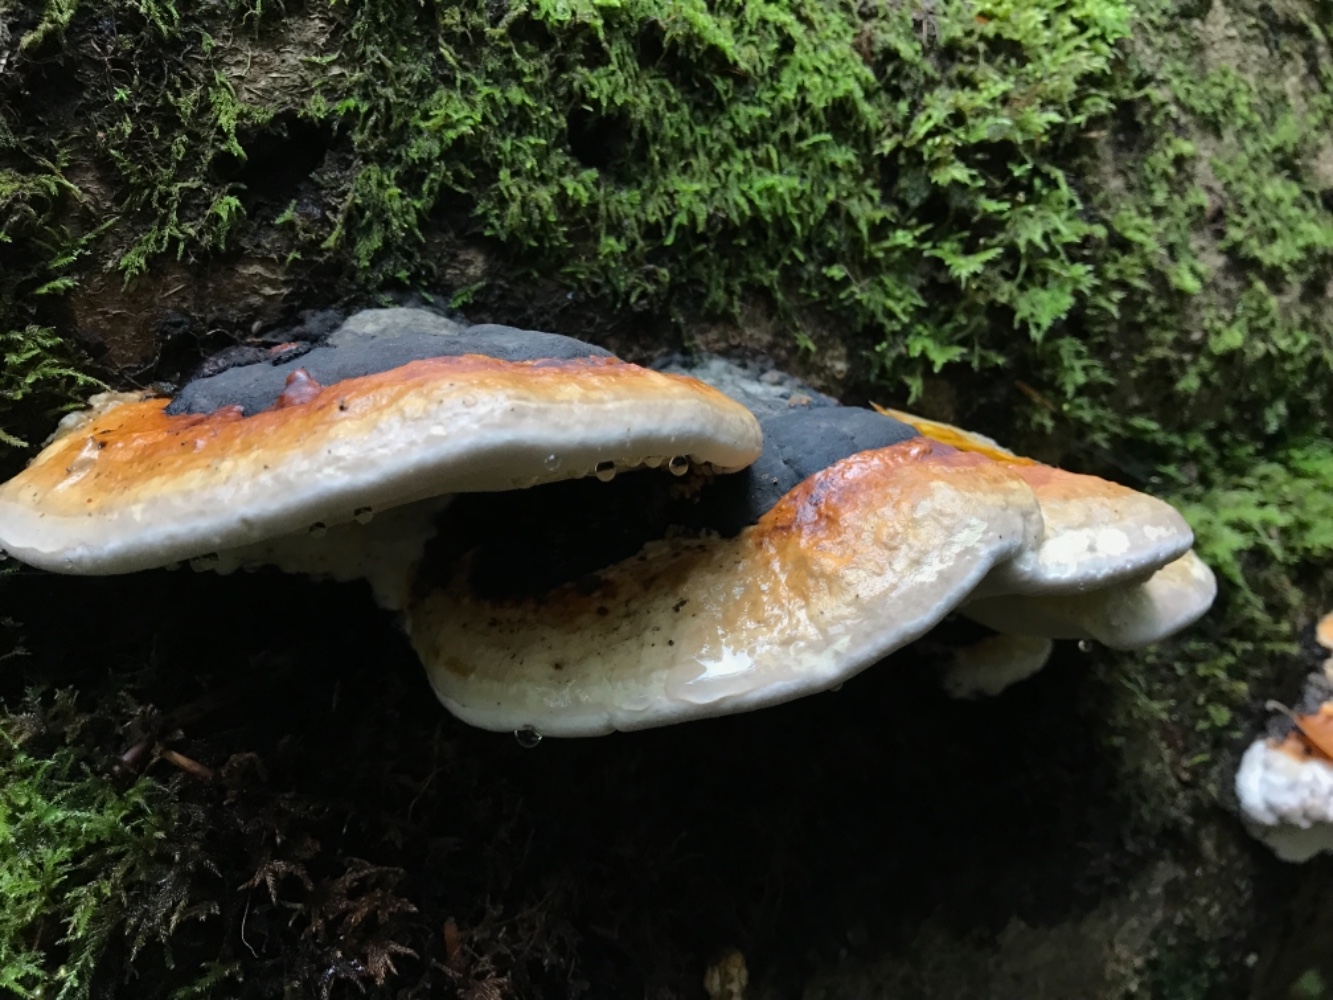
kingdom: Fungi
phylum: Basidiomycota
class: Agaricomycetes
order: Polyporales
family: Fomitopsidaceae
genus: Fomitopsis
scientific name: Fomitopsis pinicola
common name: randbæltet hovporesvamp
